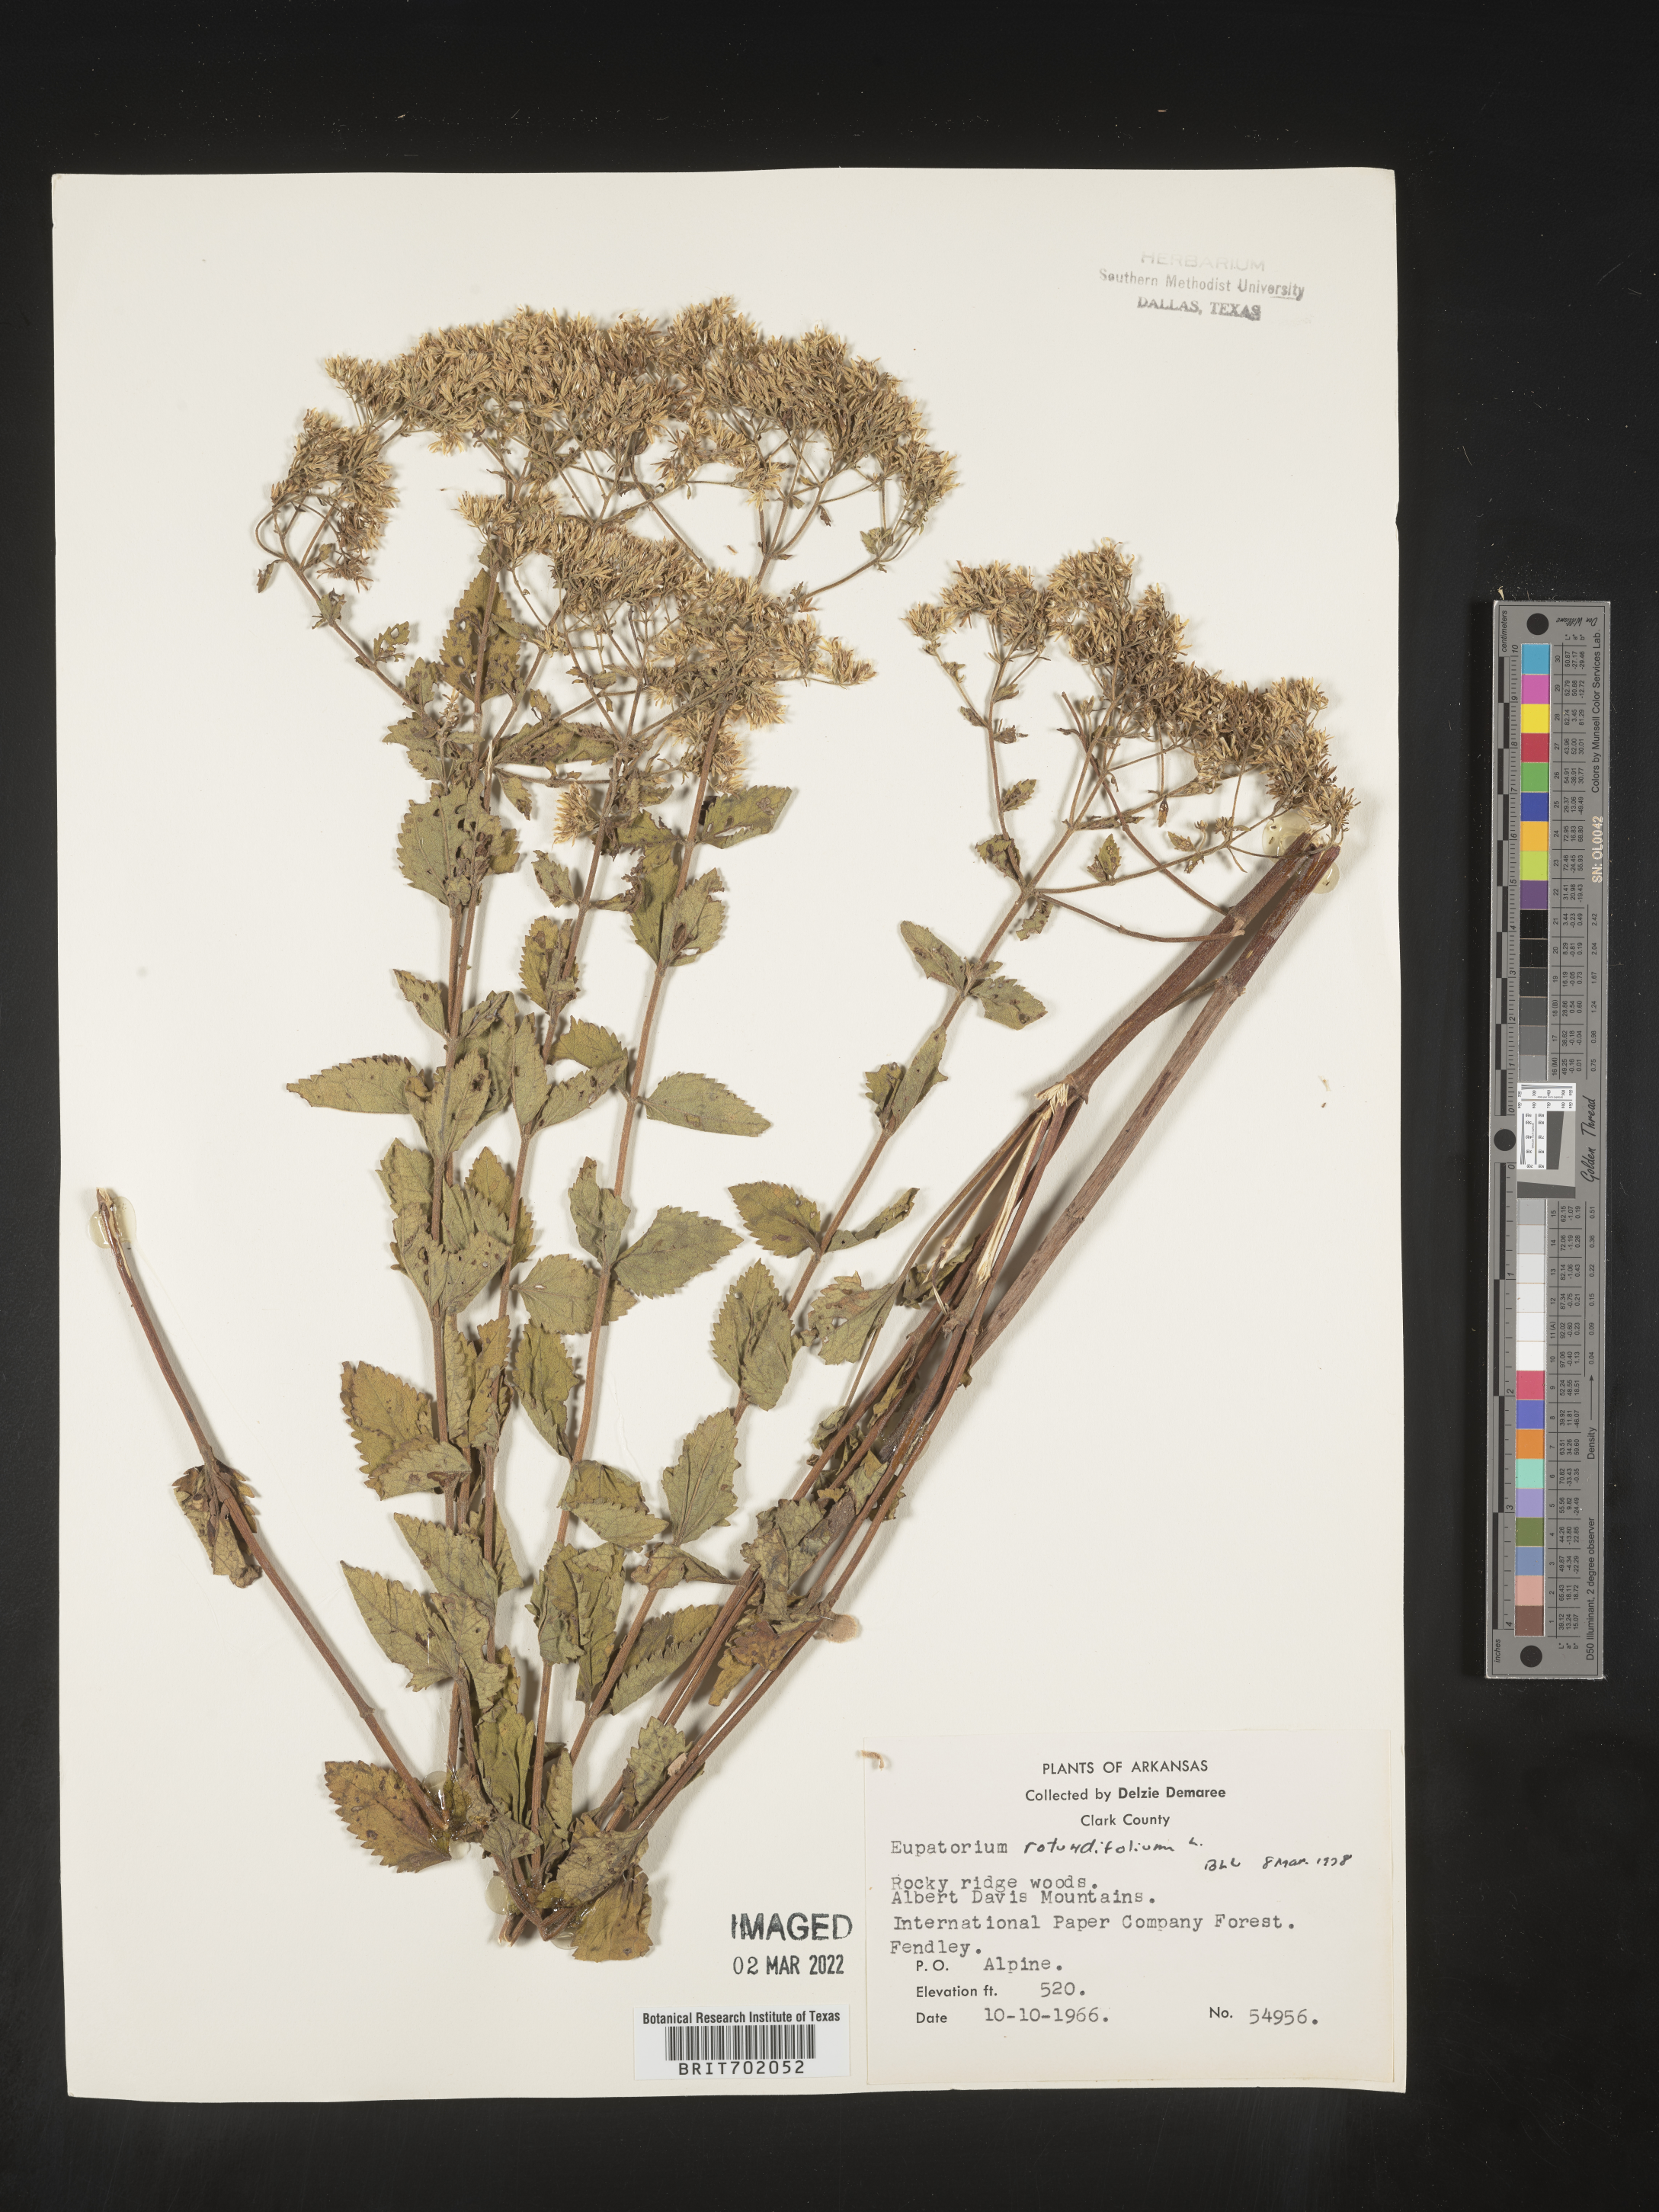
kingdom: Plantae
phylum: Tracheophyta
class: Magnoliopsida
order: Asterales
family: Asteraceae
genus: Eupatorium
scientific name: Eupatorium rotundifolium
